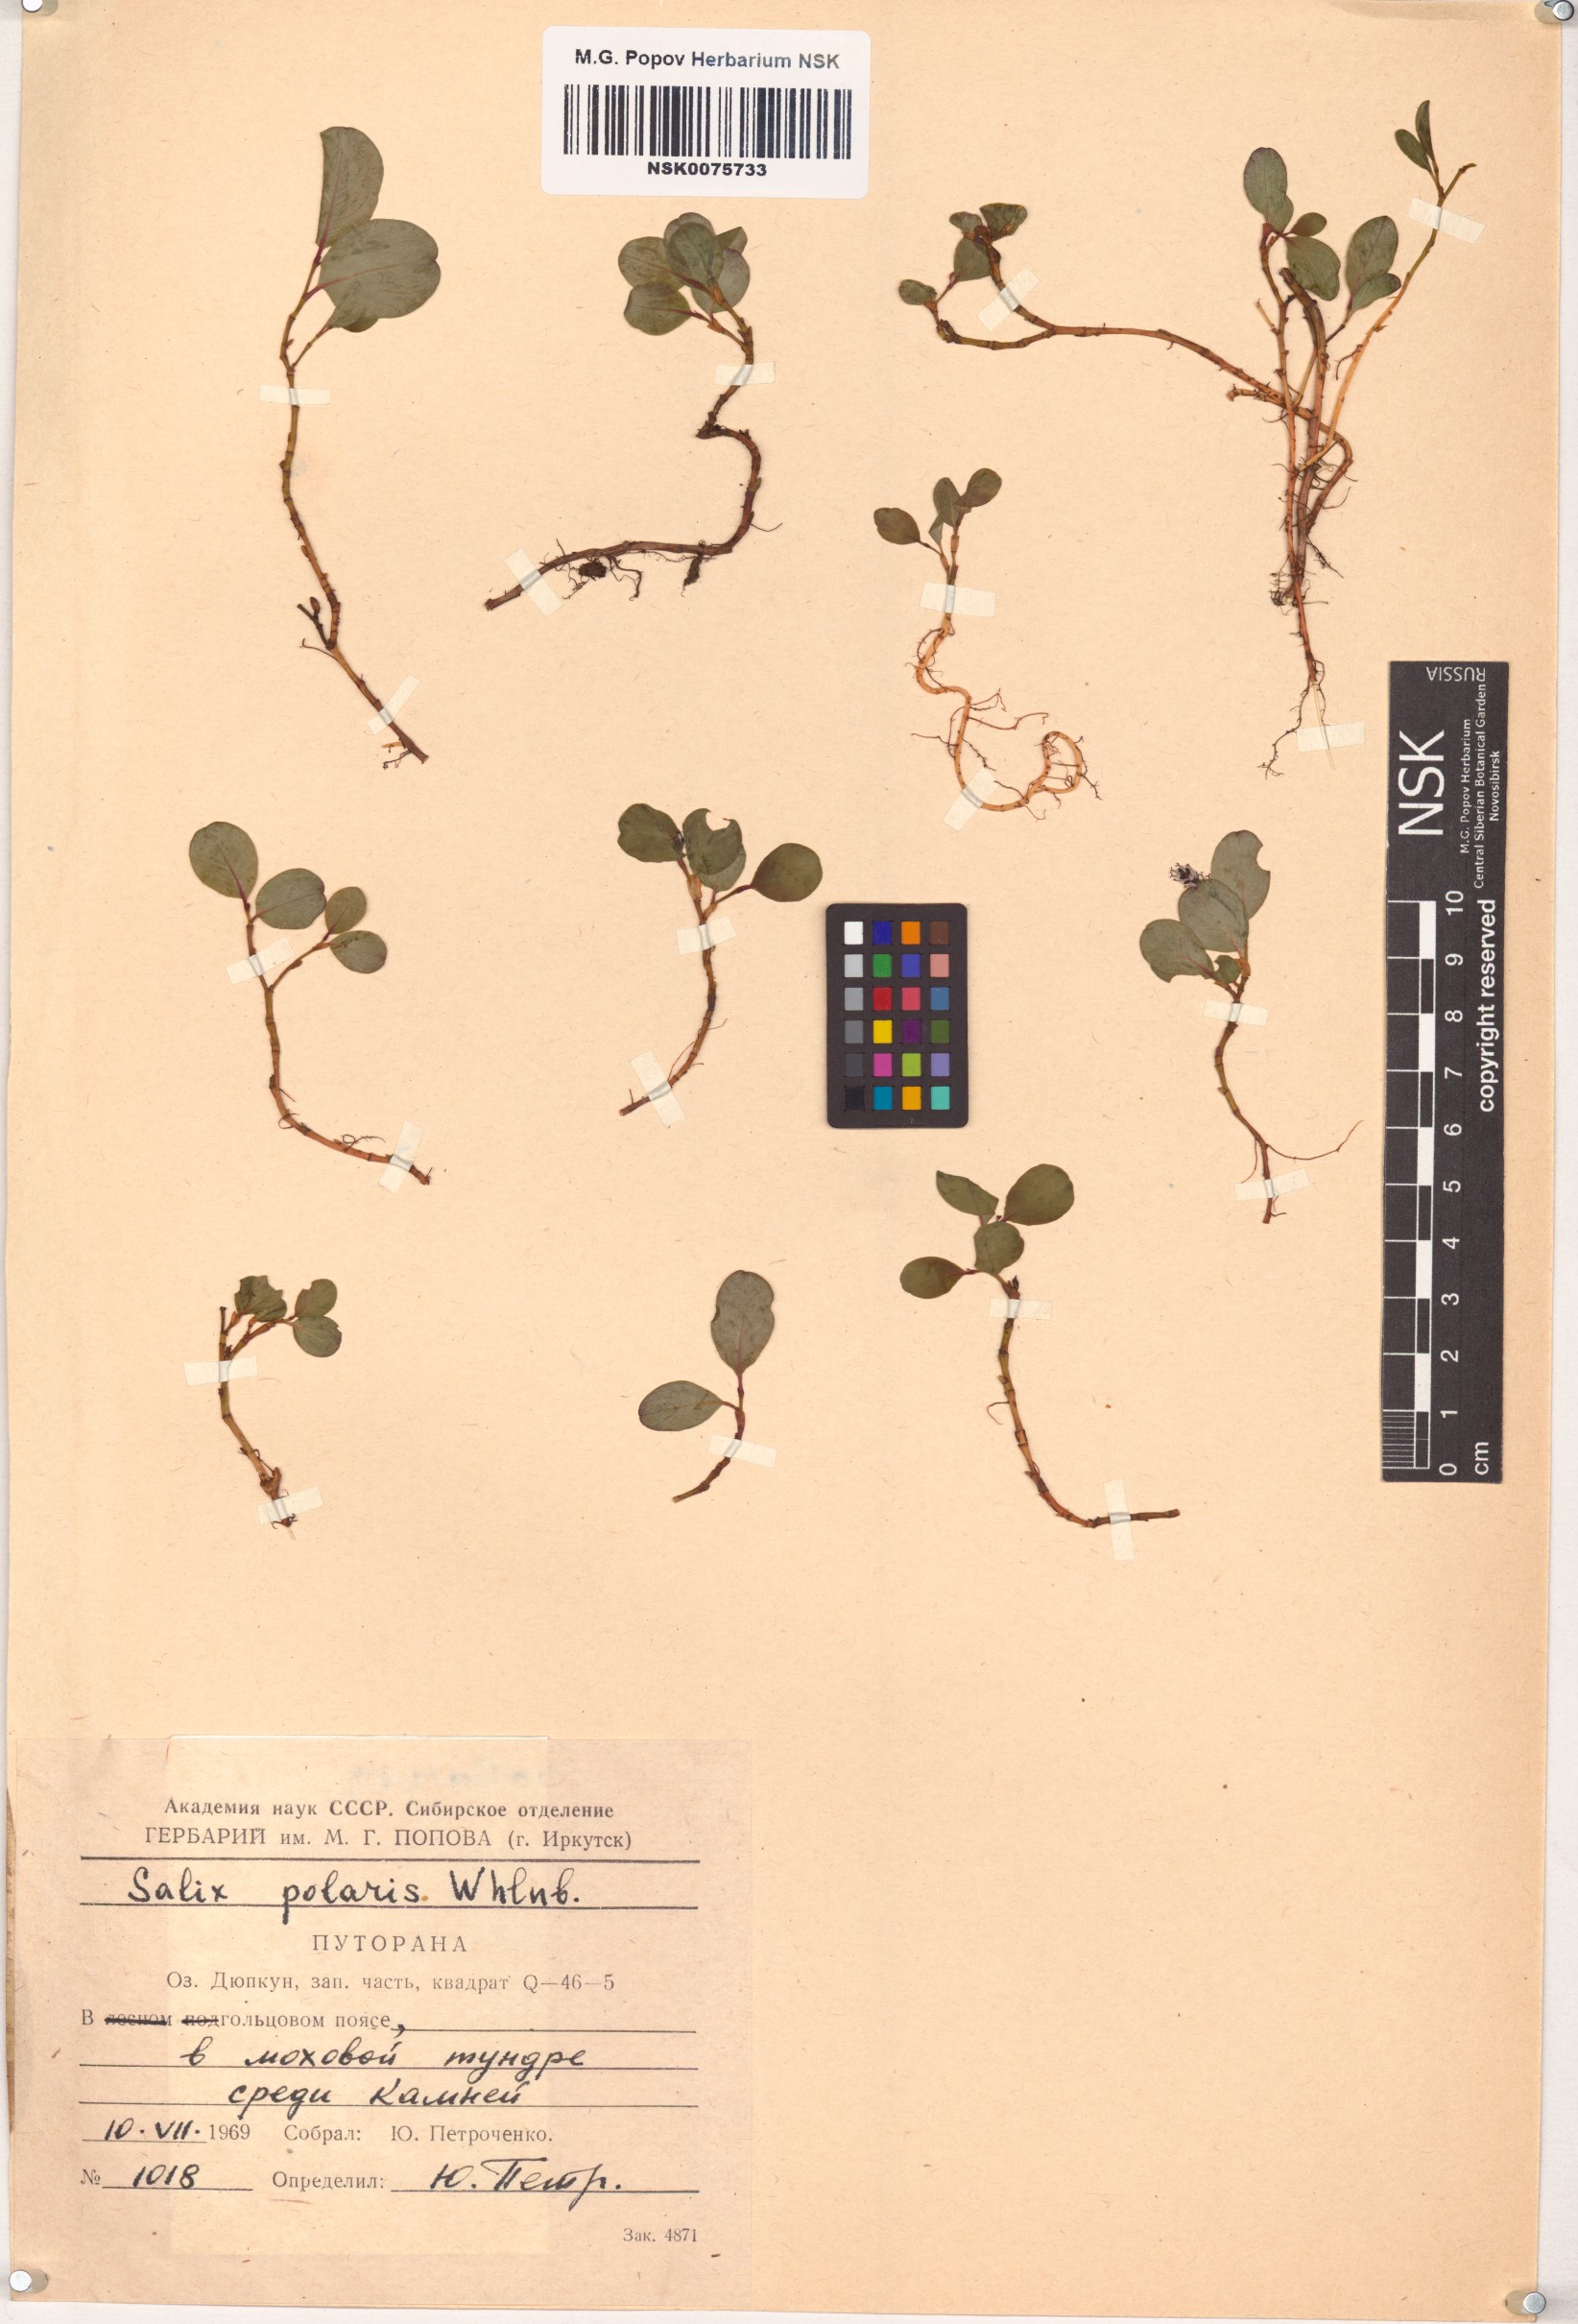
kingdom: Plantae
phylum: Tracheophyta
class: Magnoliopsida
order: Malpighiales
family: Salicaceae
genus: Salix
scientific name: Salix polaris
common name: Polar willow
